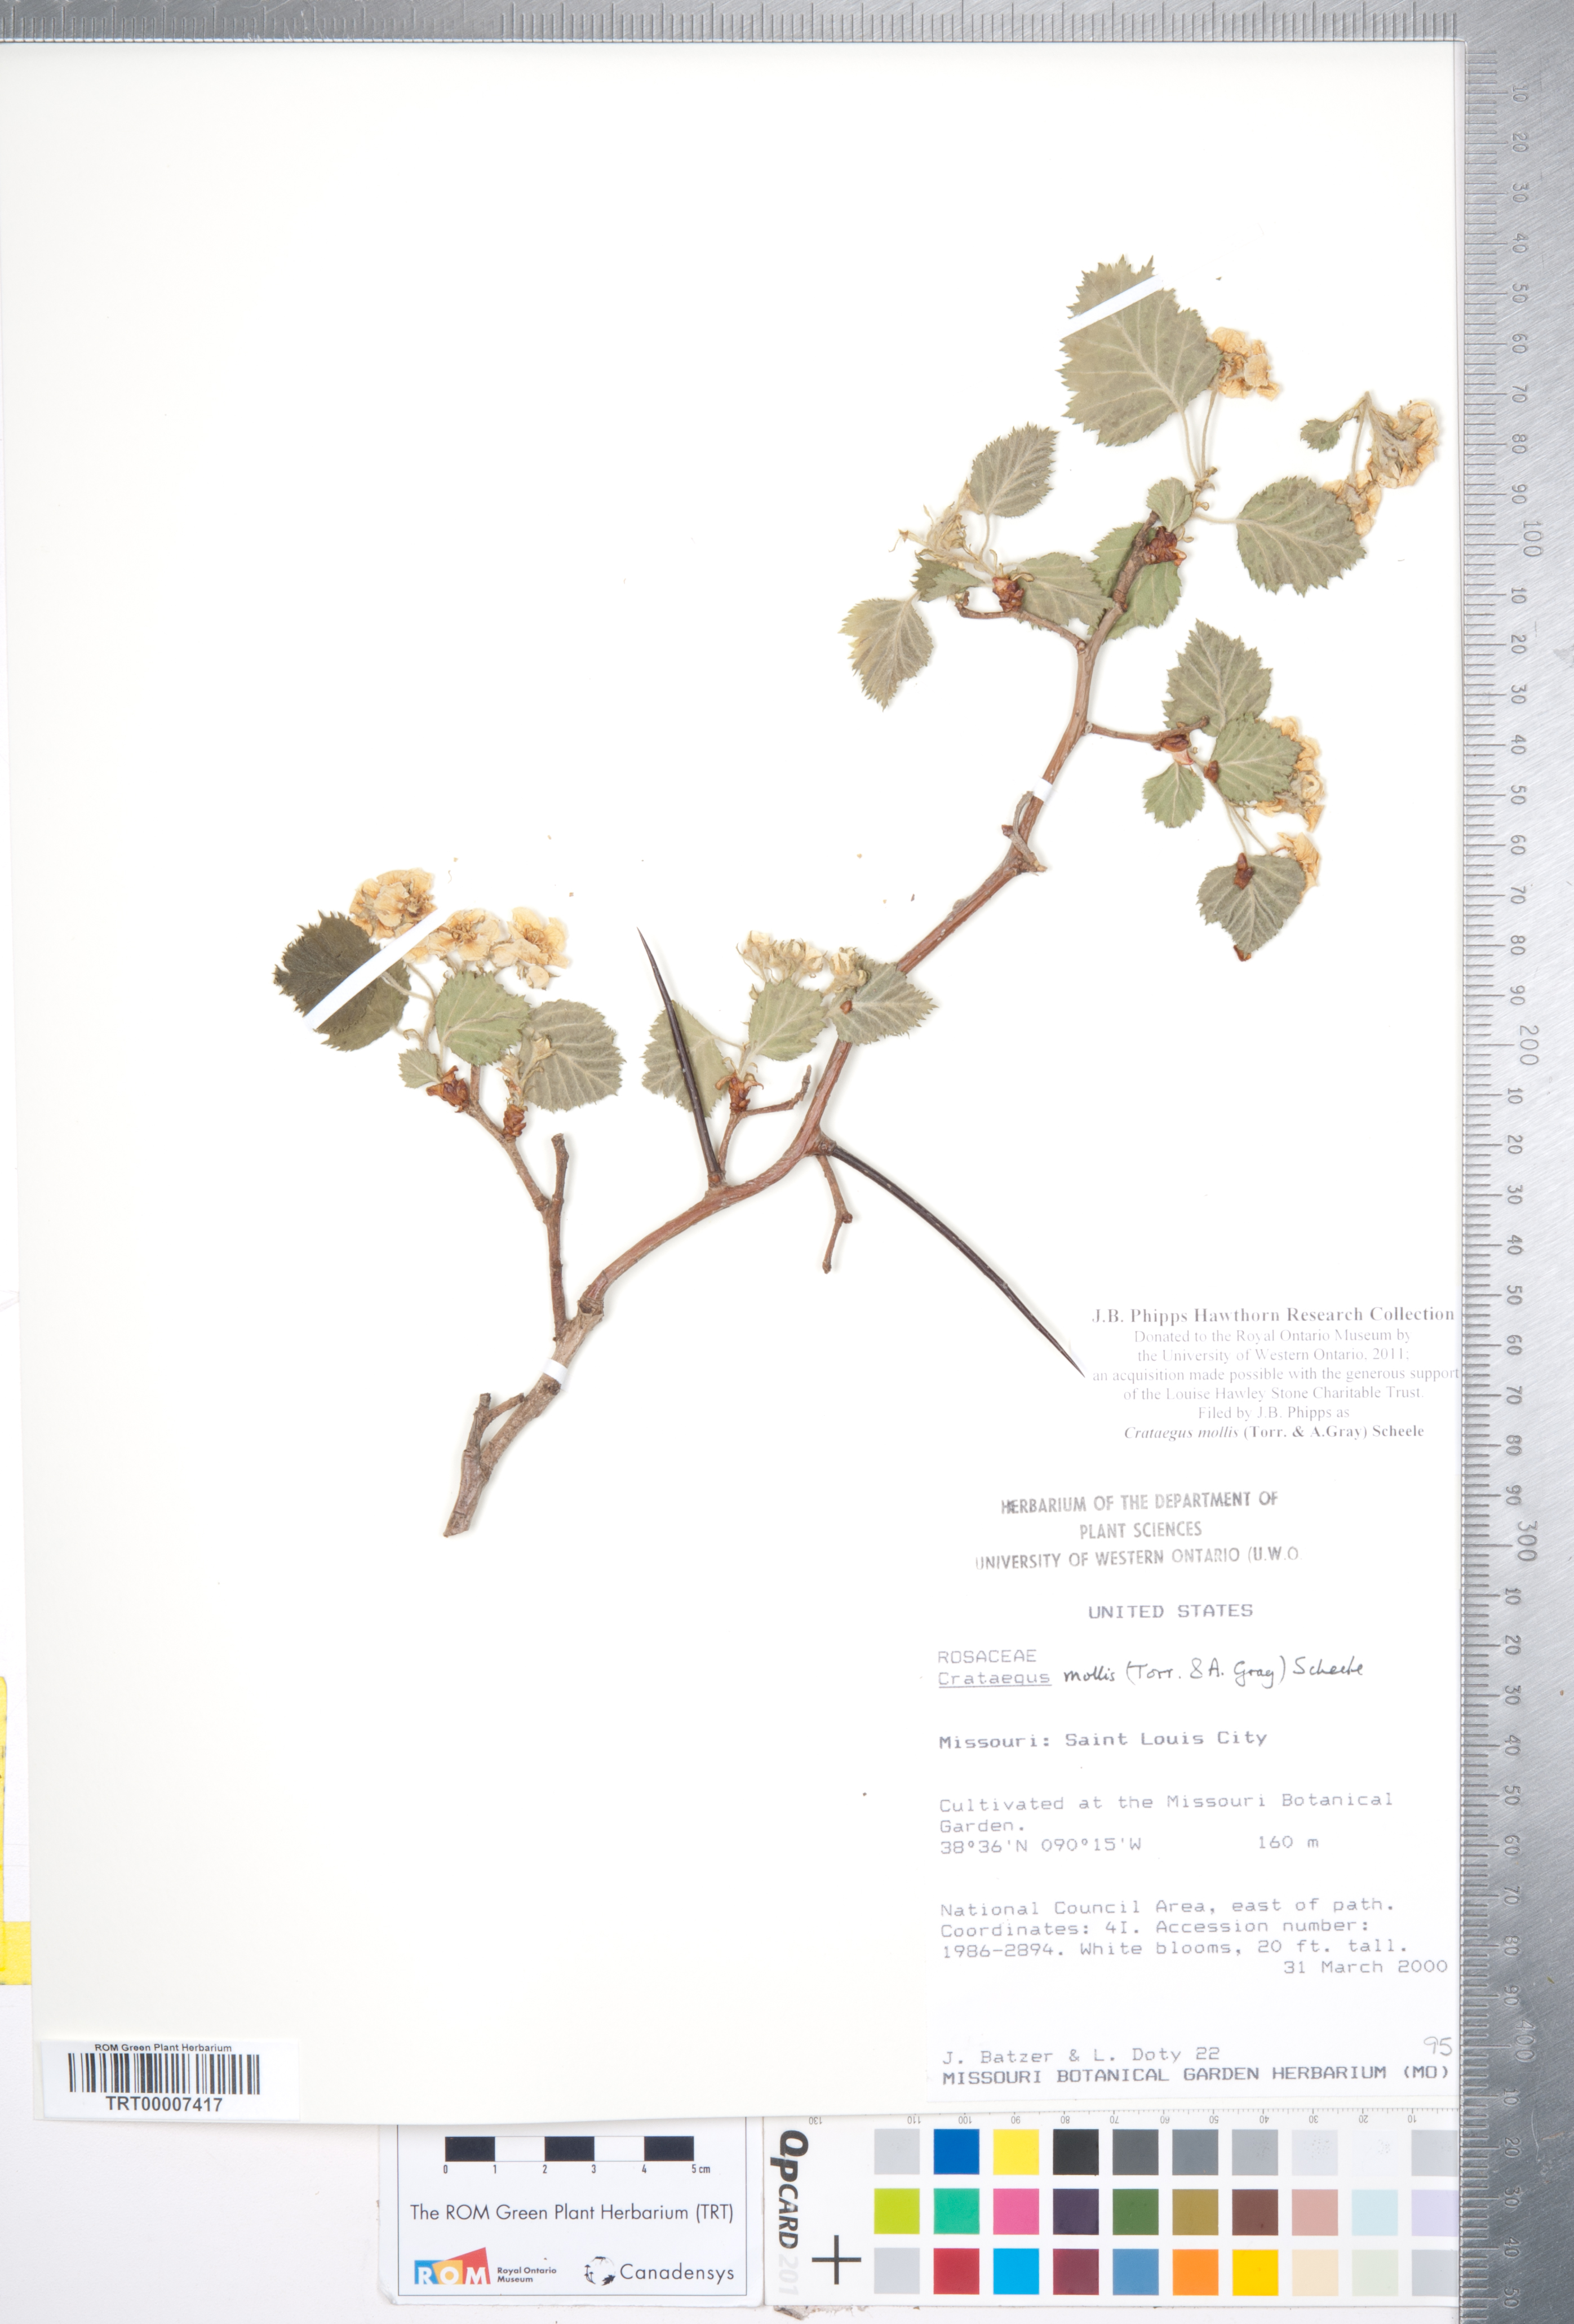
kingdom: Plantae
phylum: Tracheophyta
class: Magnoliopsida
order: Rosales
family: Rosaceae
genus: Crataegus
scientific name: Crataegus mollis
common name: Downy hawthorn
